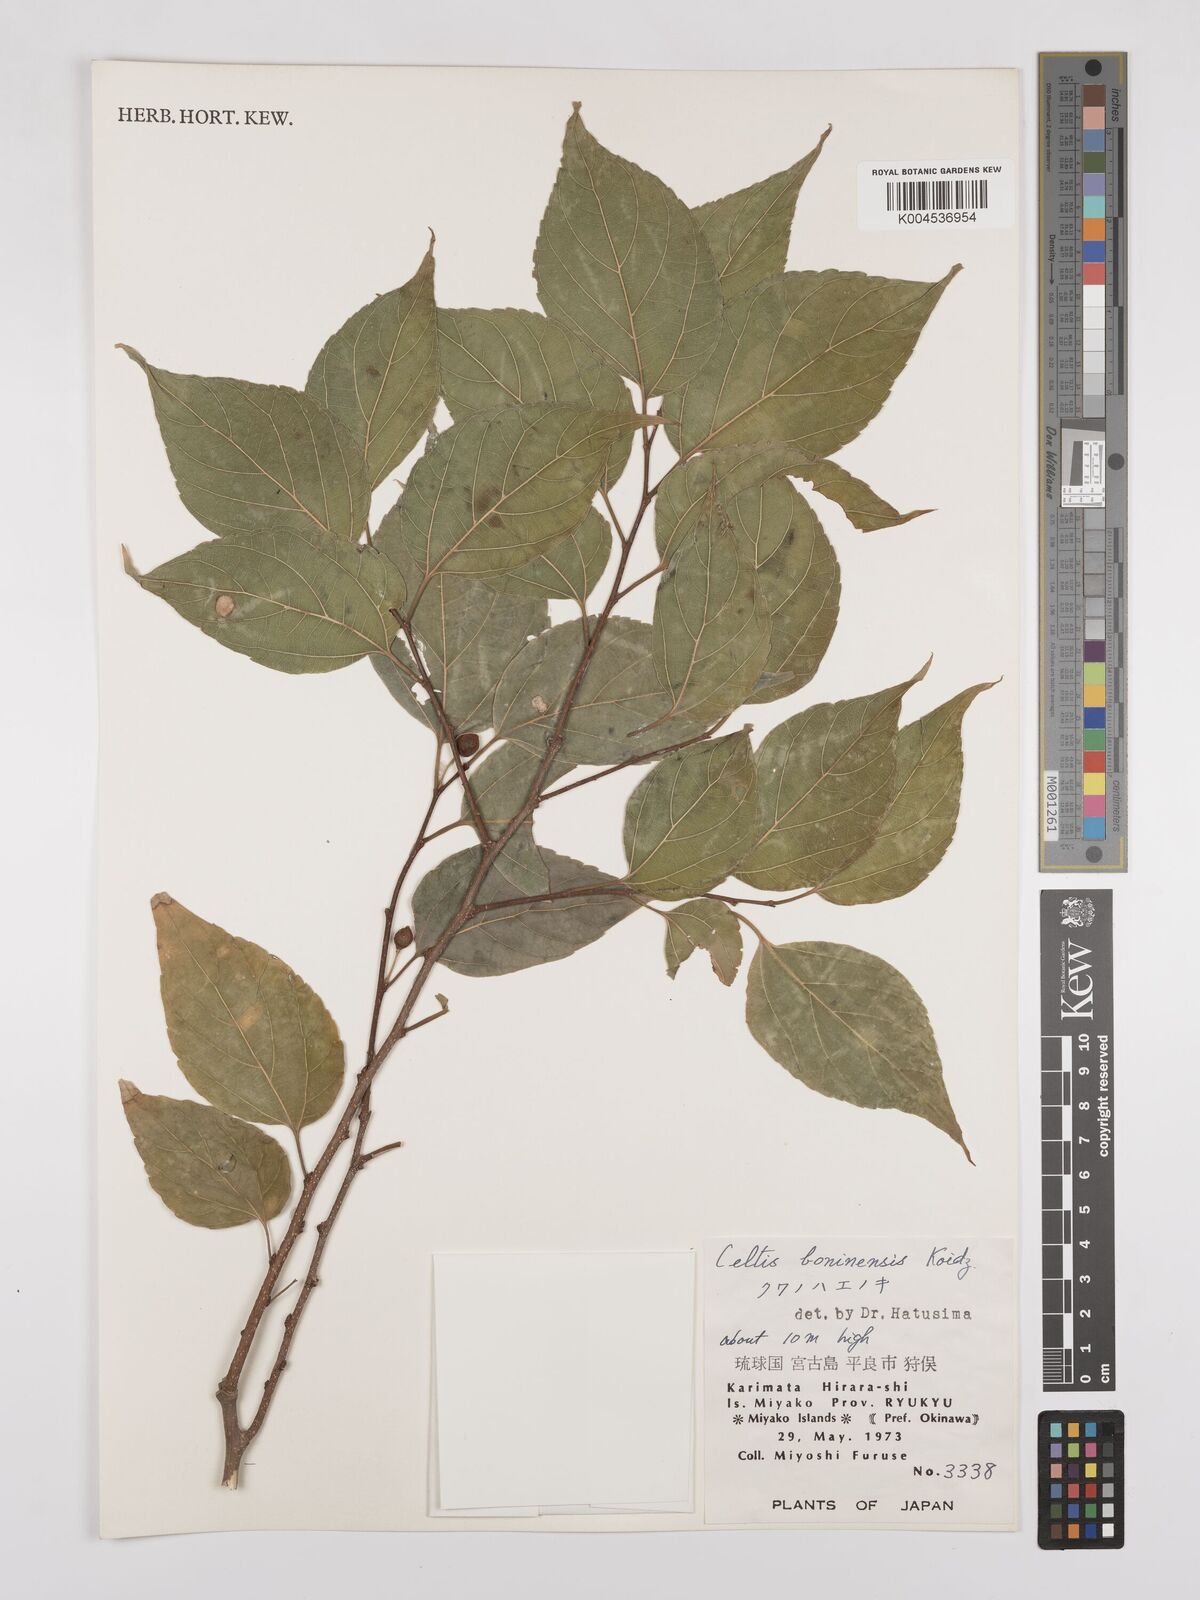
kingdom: Plantae
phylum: Tracheophyta
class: Magnoliopsida
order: Rosales
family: Cannabaceae
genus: Celtis
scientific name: Celtis boninensis
